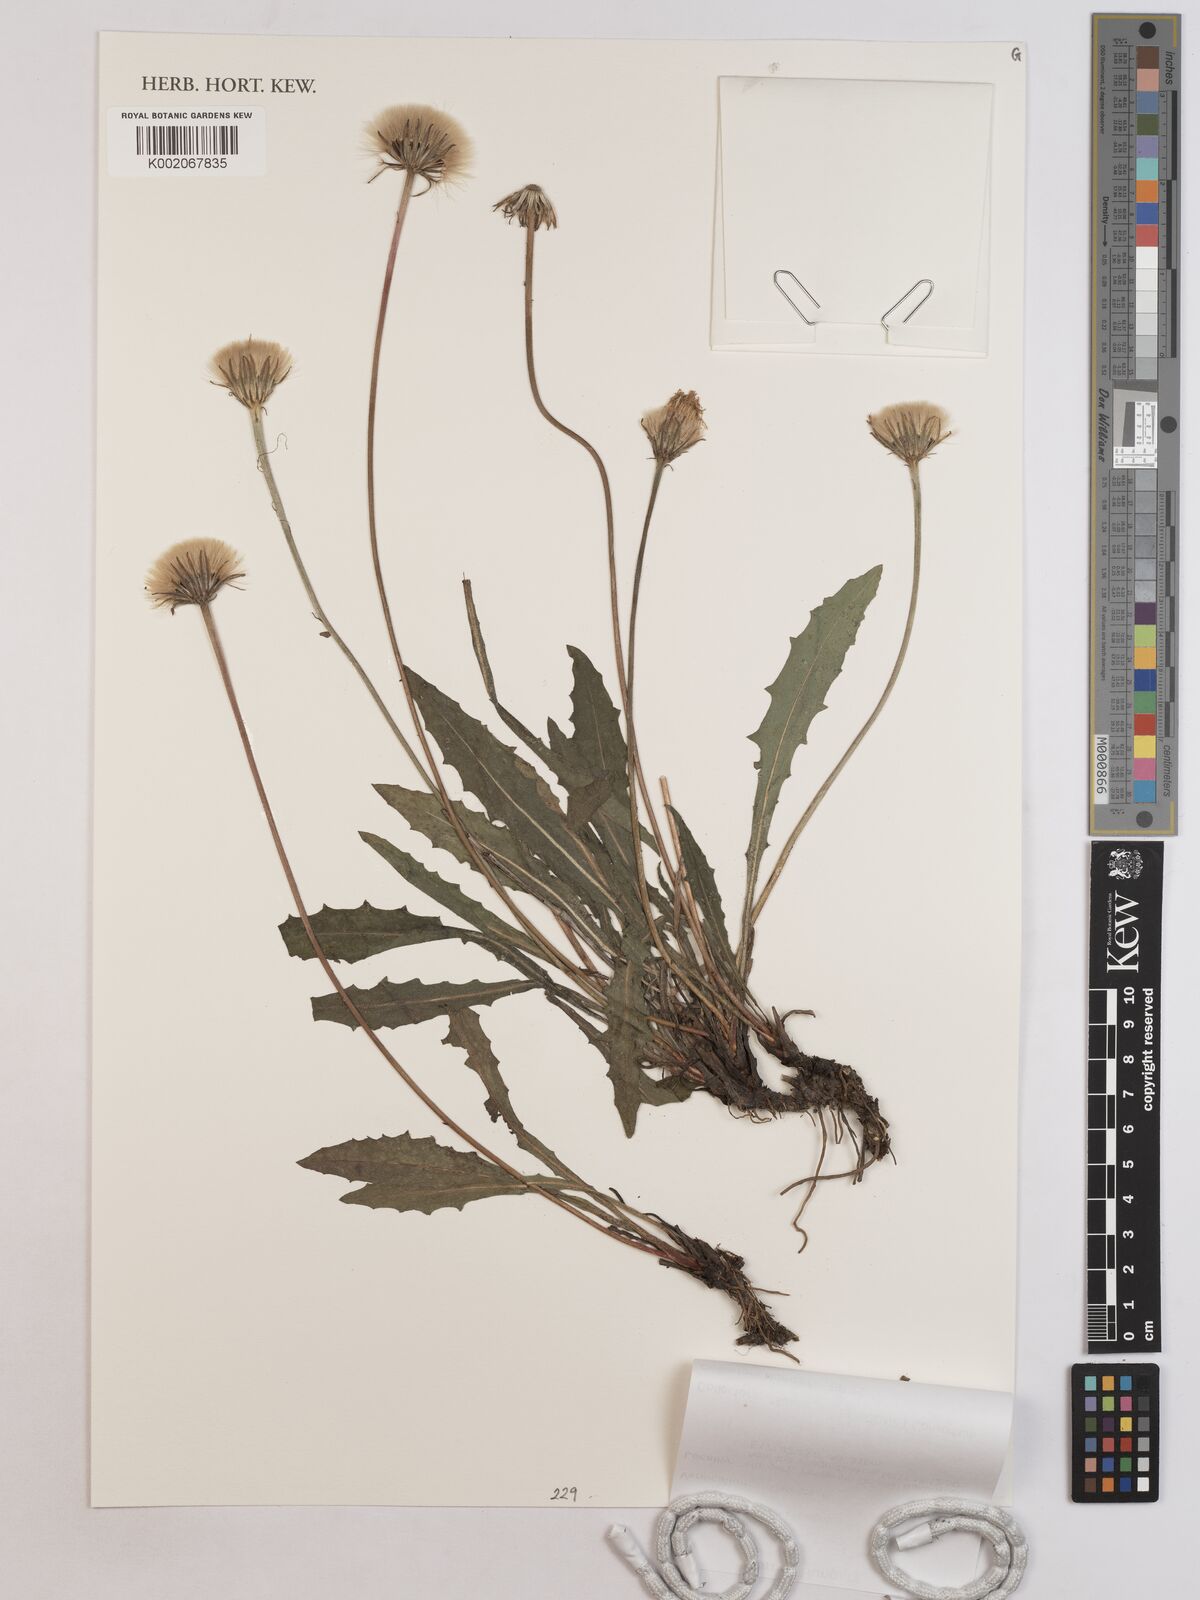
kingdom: Plantae
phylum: Tracheophyta
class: Magnoliopsida
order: Asterales
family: Asteraceae
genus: Leontodon
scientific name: Leontodon hispidus
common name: Rough hawkbit
